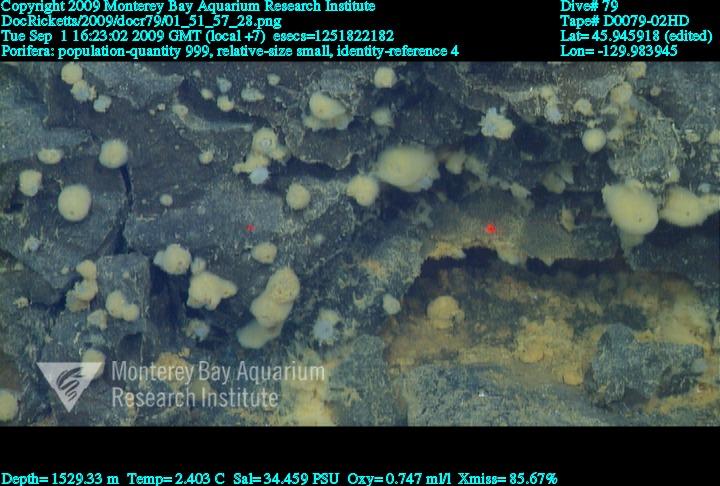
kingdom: Animalia
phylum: Porifera
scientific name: Porifera
